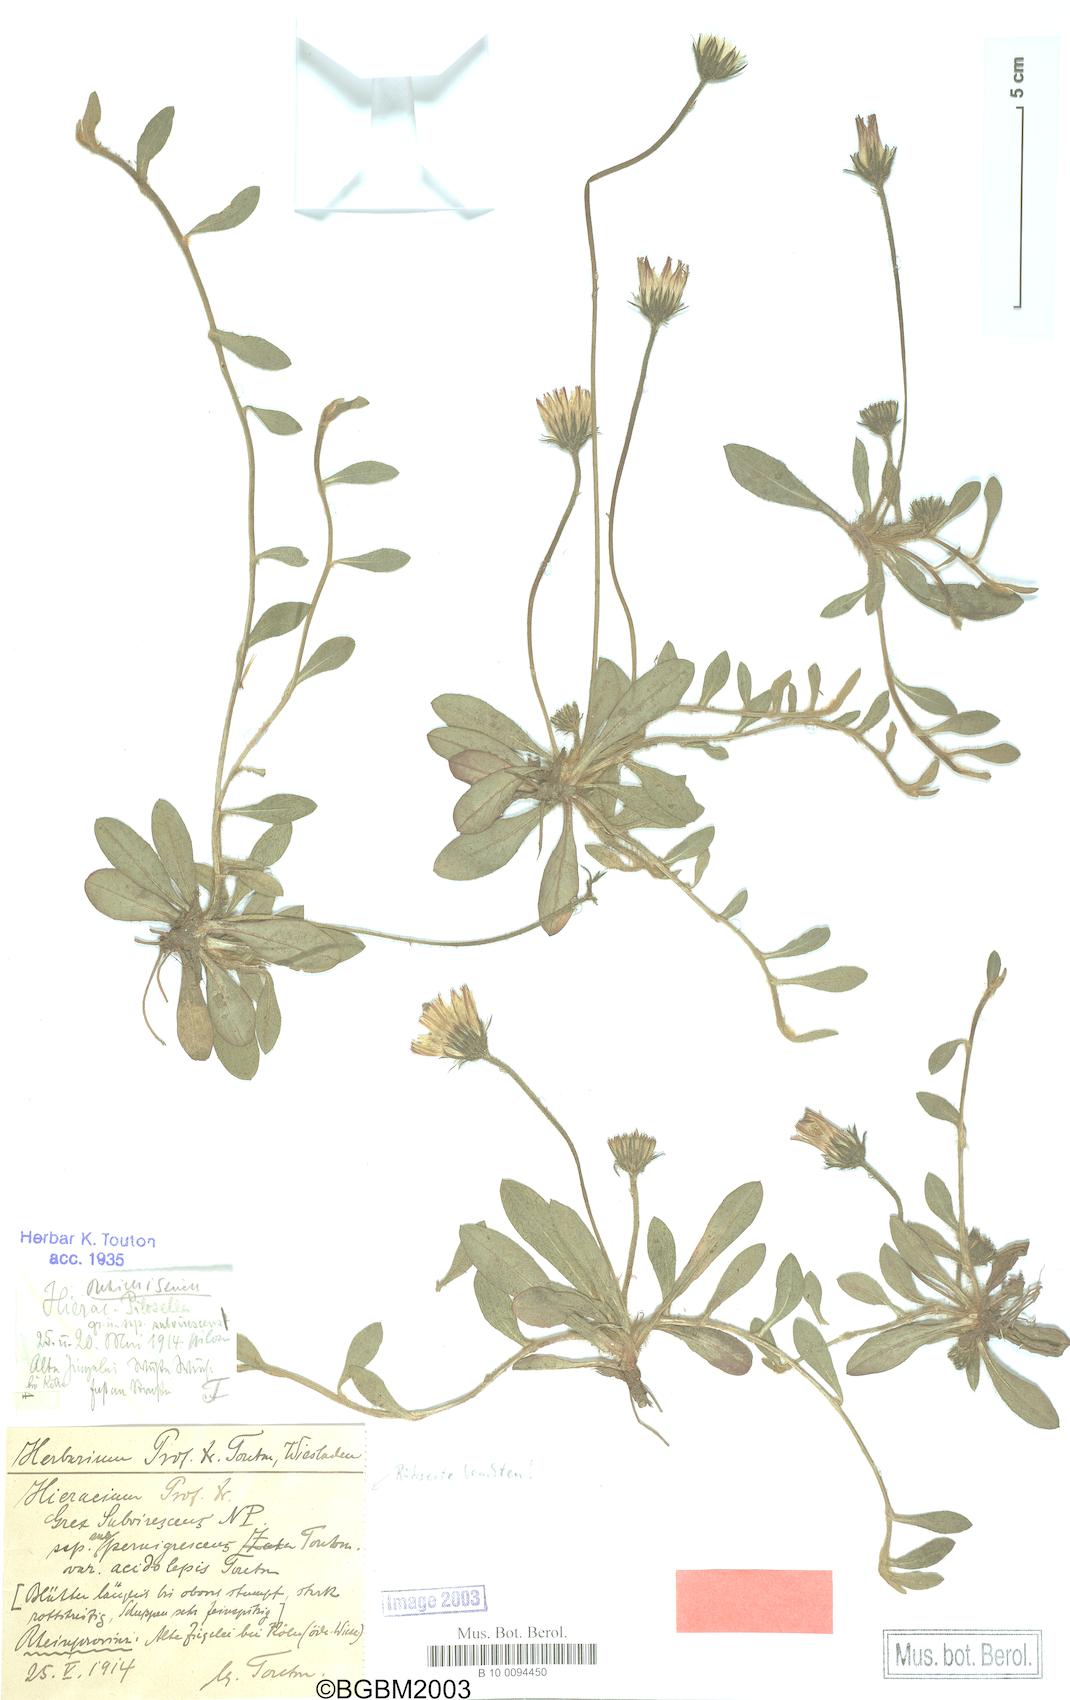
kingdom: Plantae
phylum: Tracheophyta
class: Magnoliopsida
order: Asterales
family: Asteraceae
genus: Pilosella
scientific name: Pilosella officinarum
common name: Mouse-ear hawkweed
